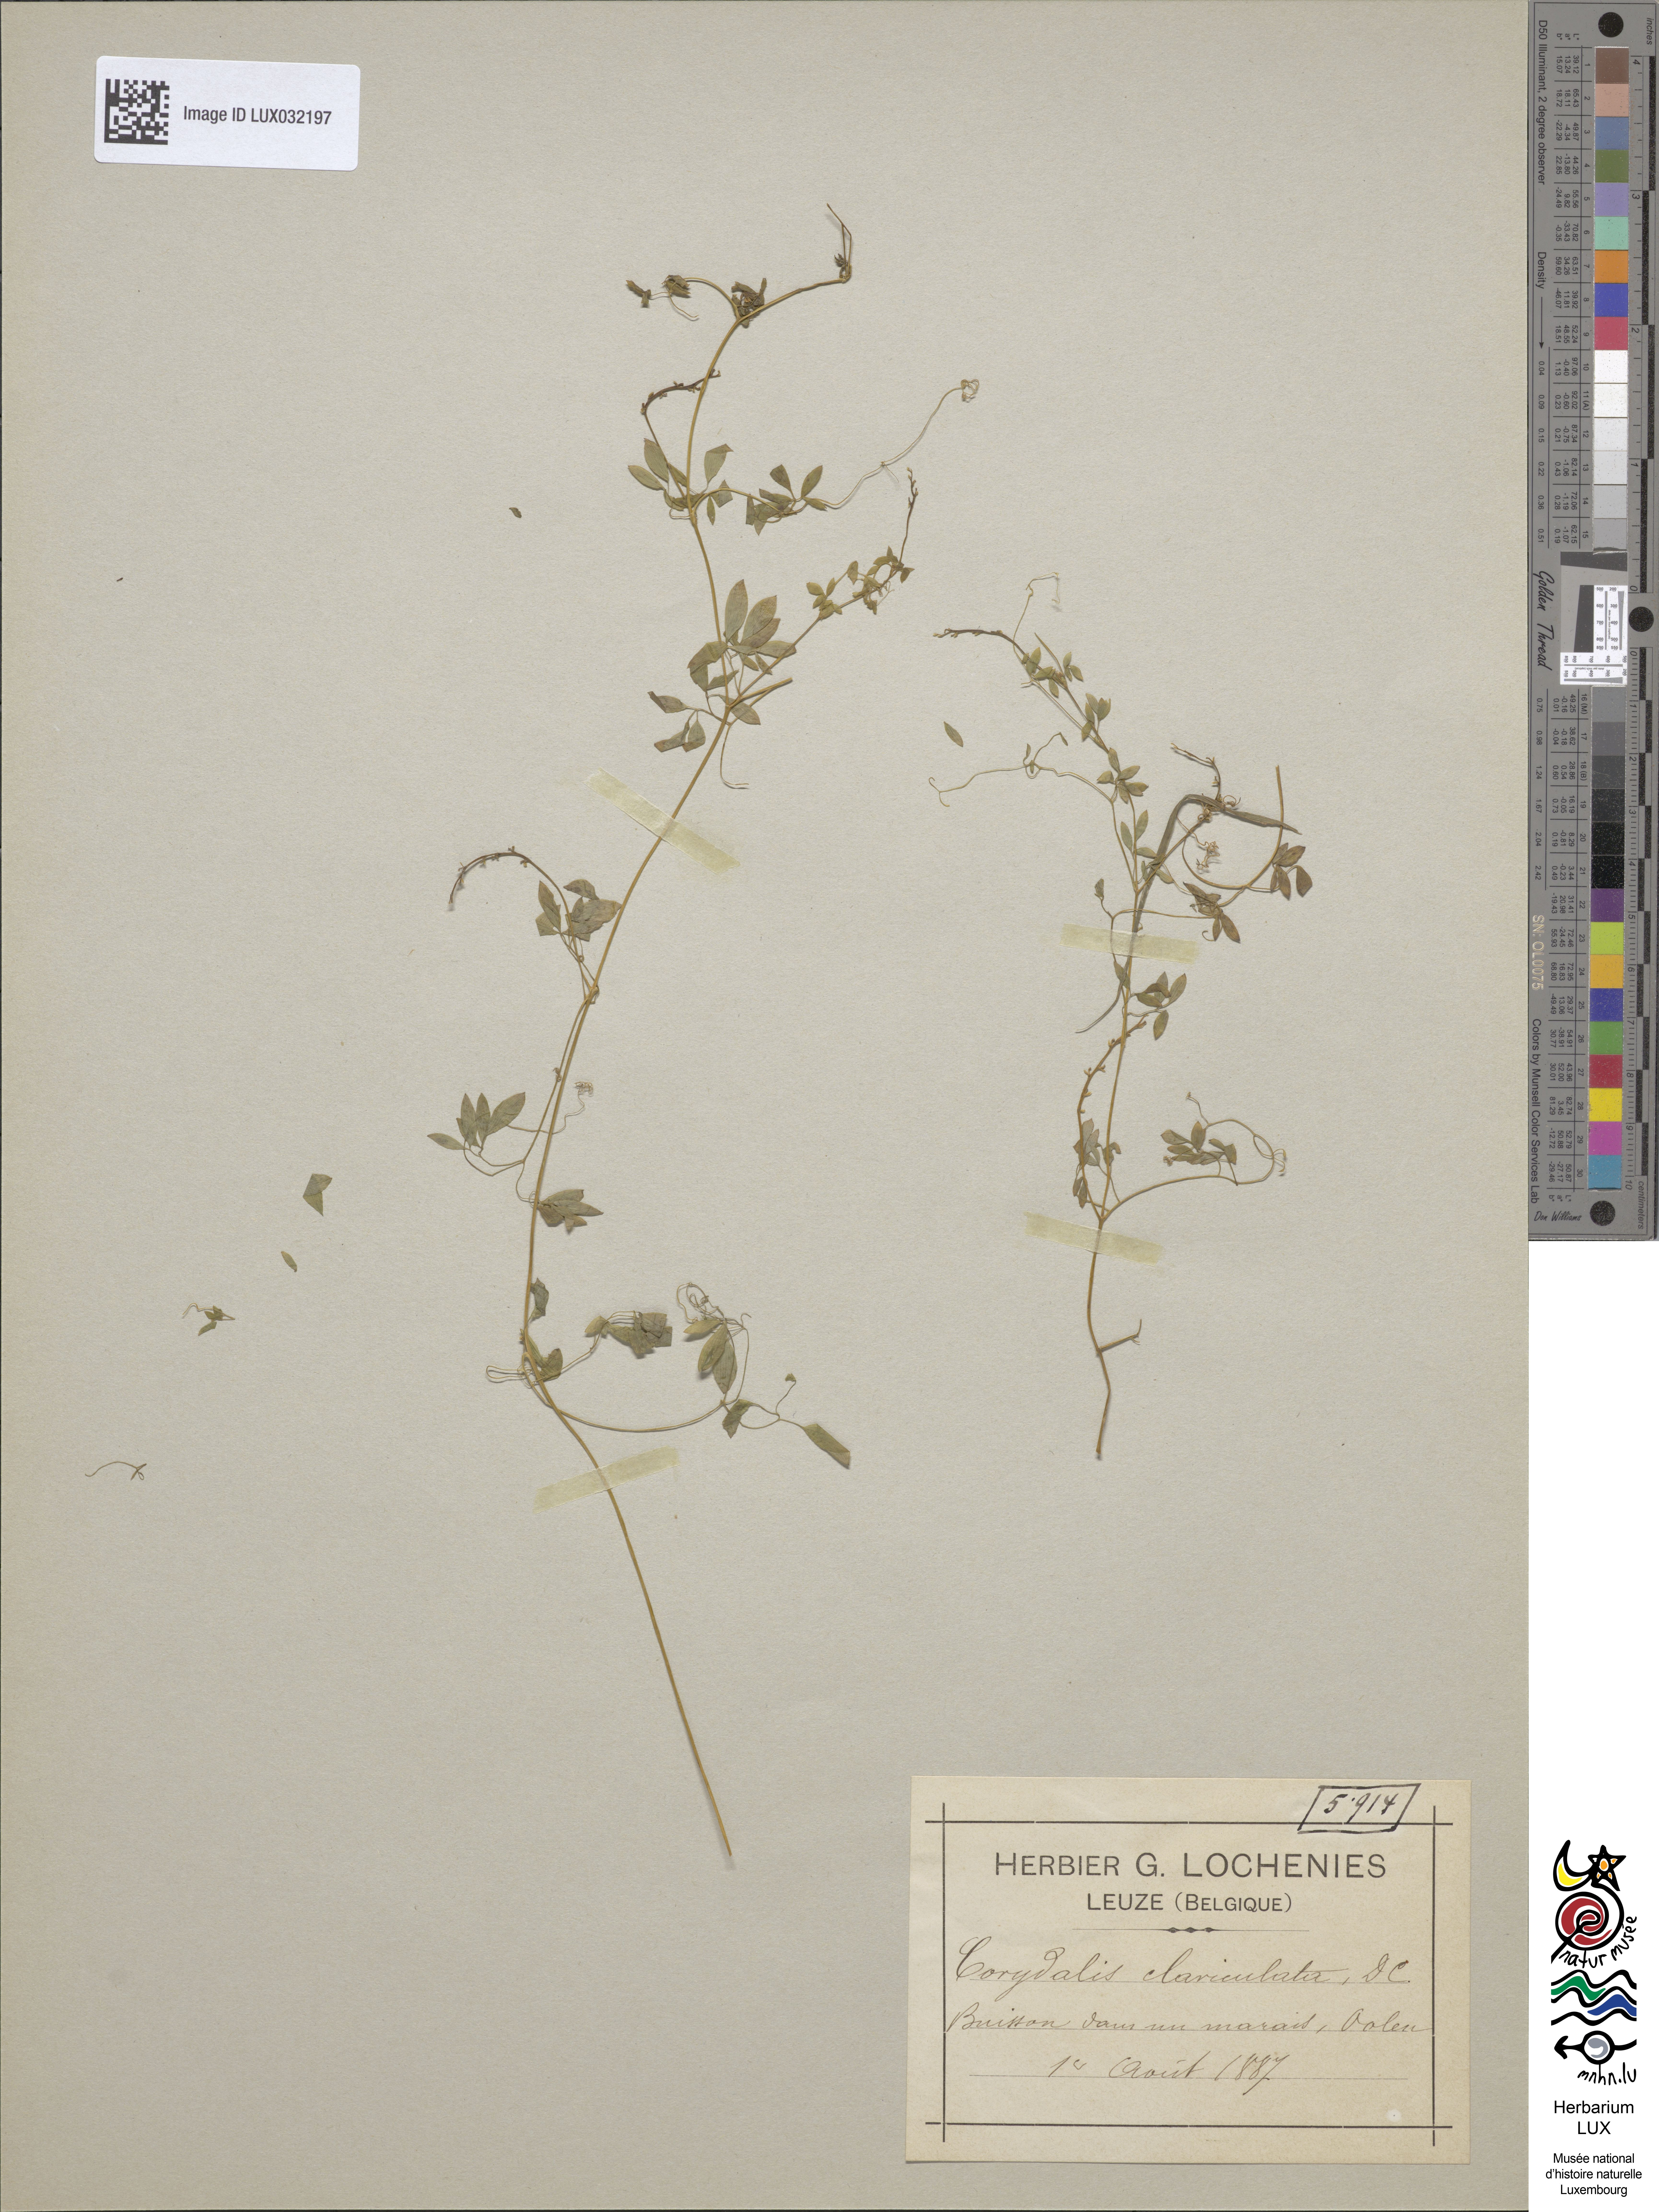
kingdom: Plantae
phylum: Tracheophyta
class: Magnoliopsida
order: Ranunculales
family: Papaveraceae
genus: Ceratocapnos
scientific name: Ceratocapnos claviculata
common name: Climbing corydalis
